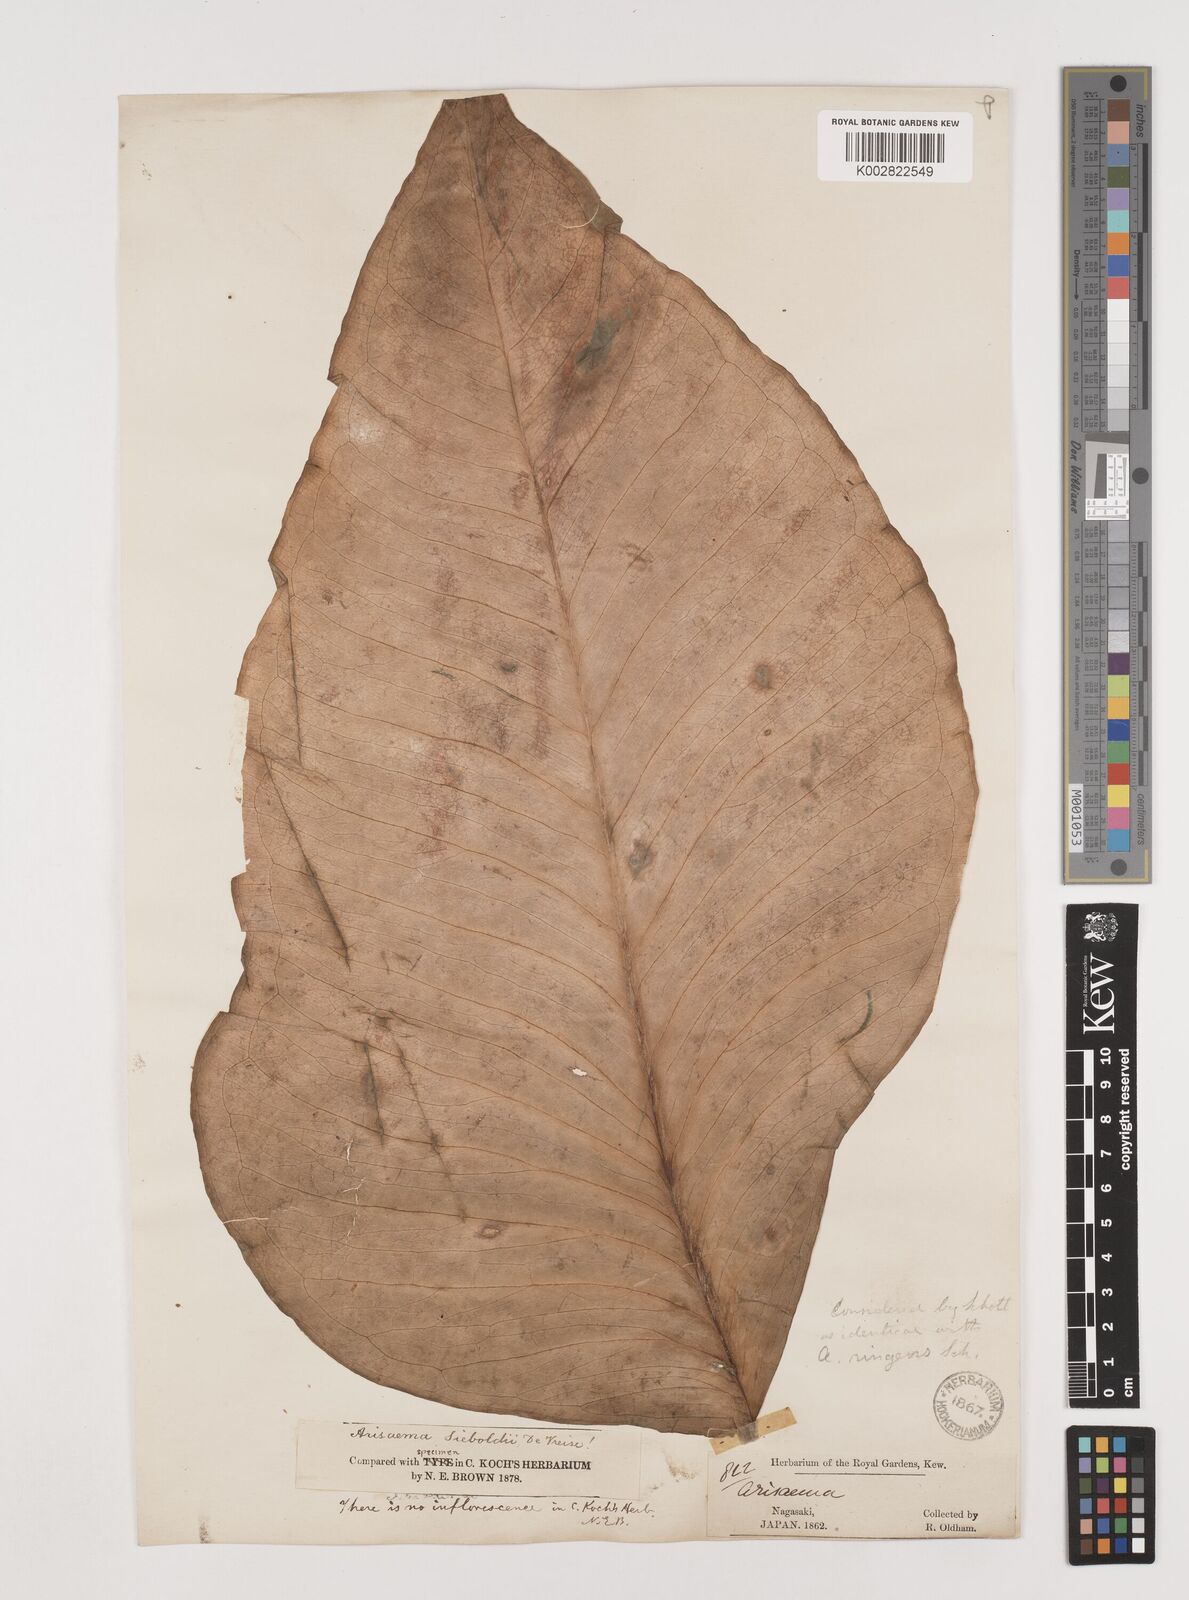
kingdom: Plantae
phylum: Tracheophyta
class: Liliopsida
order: Alismatales
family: Araceae
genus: Arisaema
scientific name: Arisaema ringens
